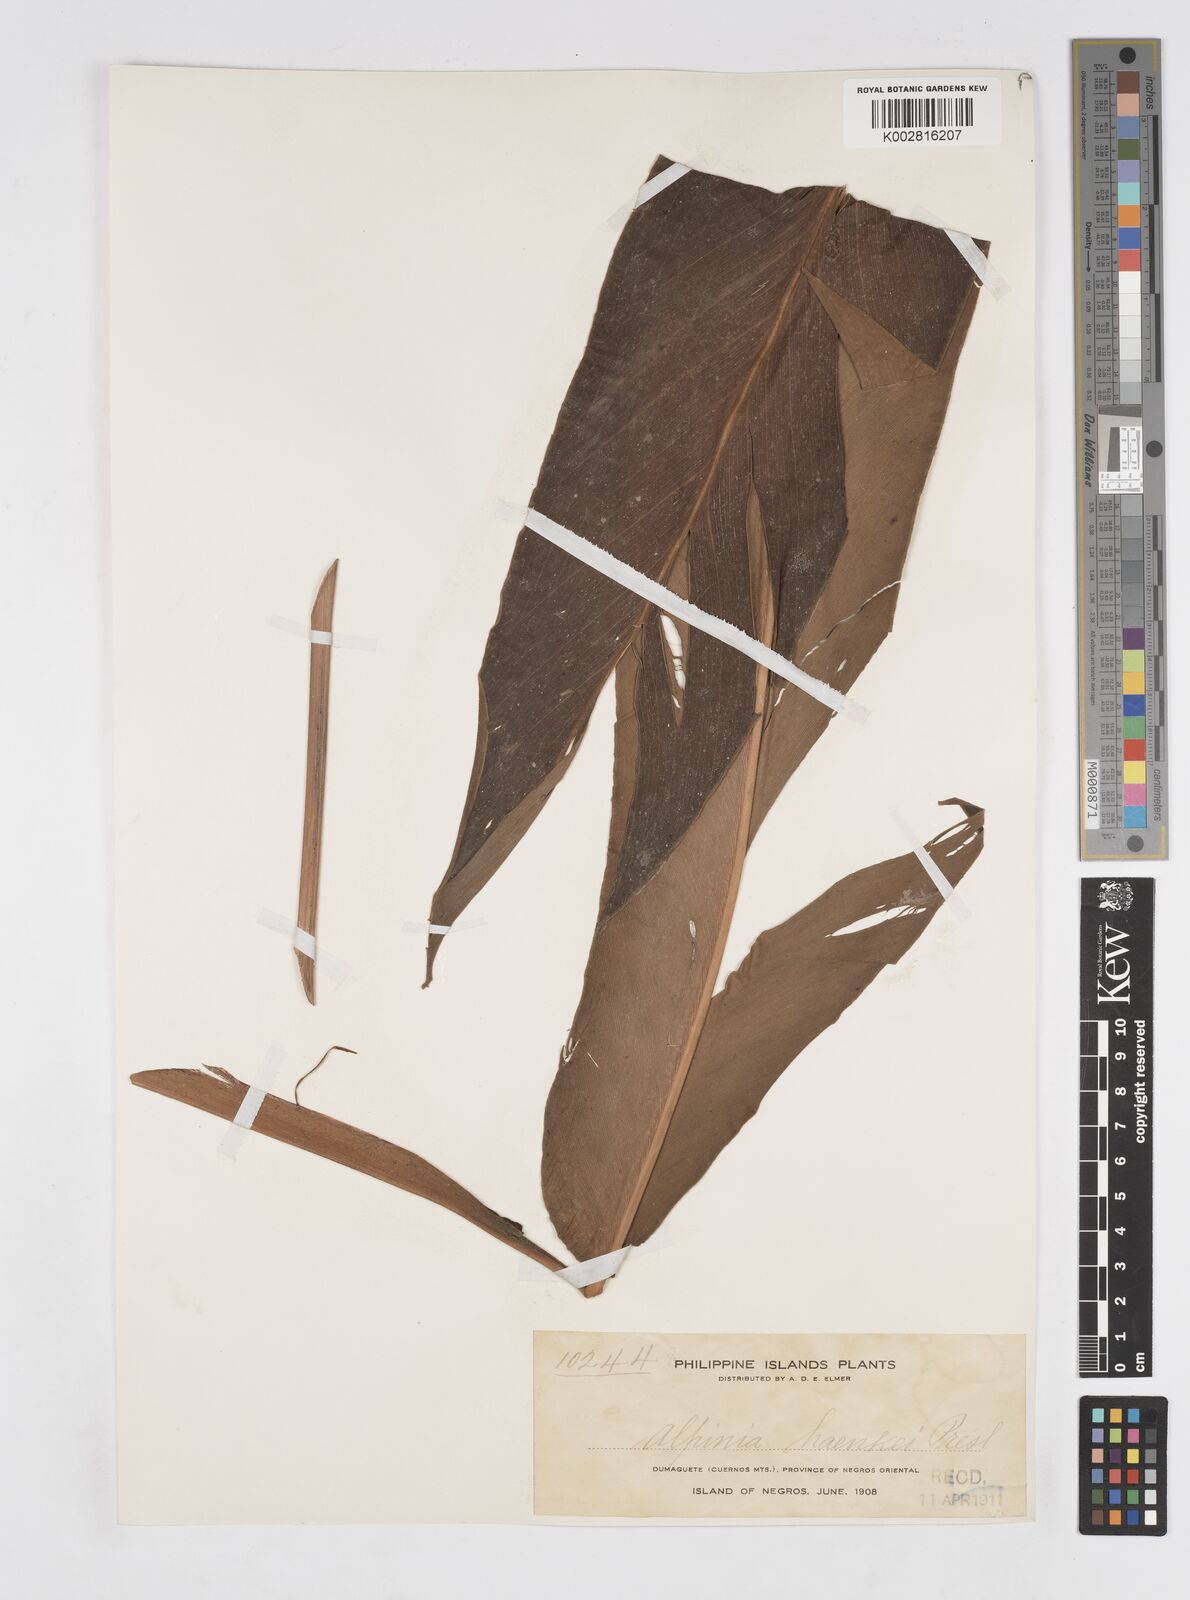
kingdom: Plantae
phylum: Tracheophyta
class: Liliopsida
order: Zingiberales
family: Zingiberaceae
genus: Alpinia
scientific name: Alpinia haenkei
